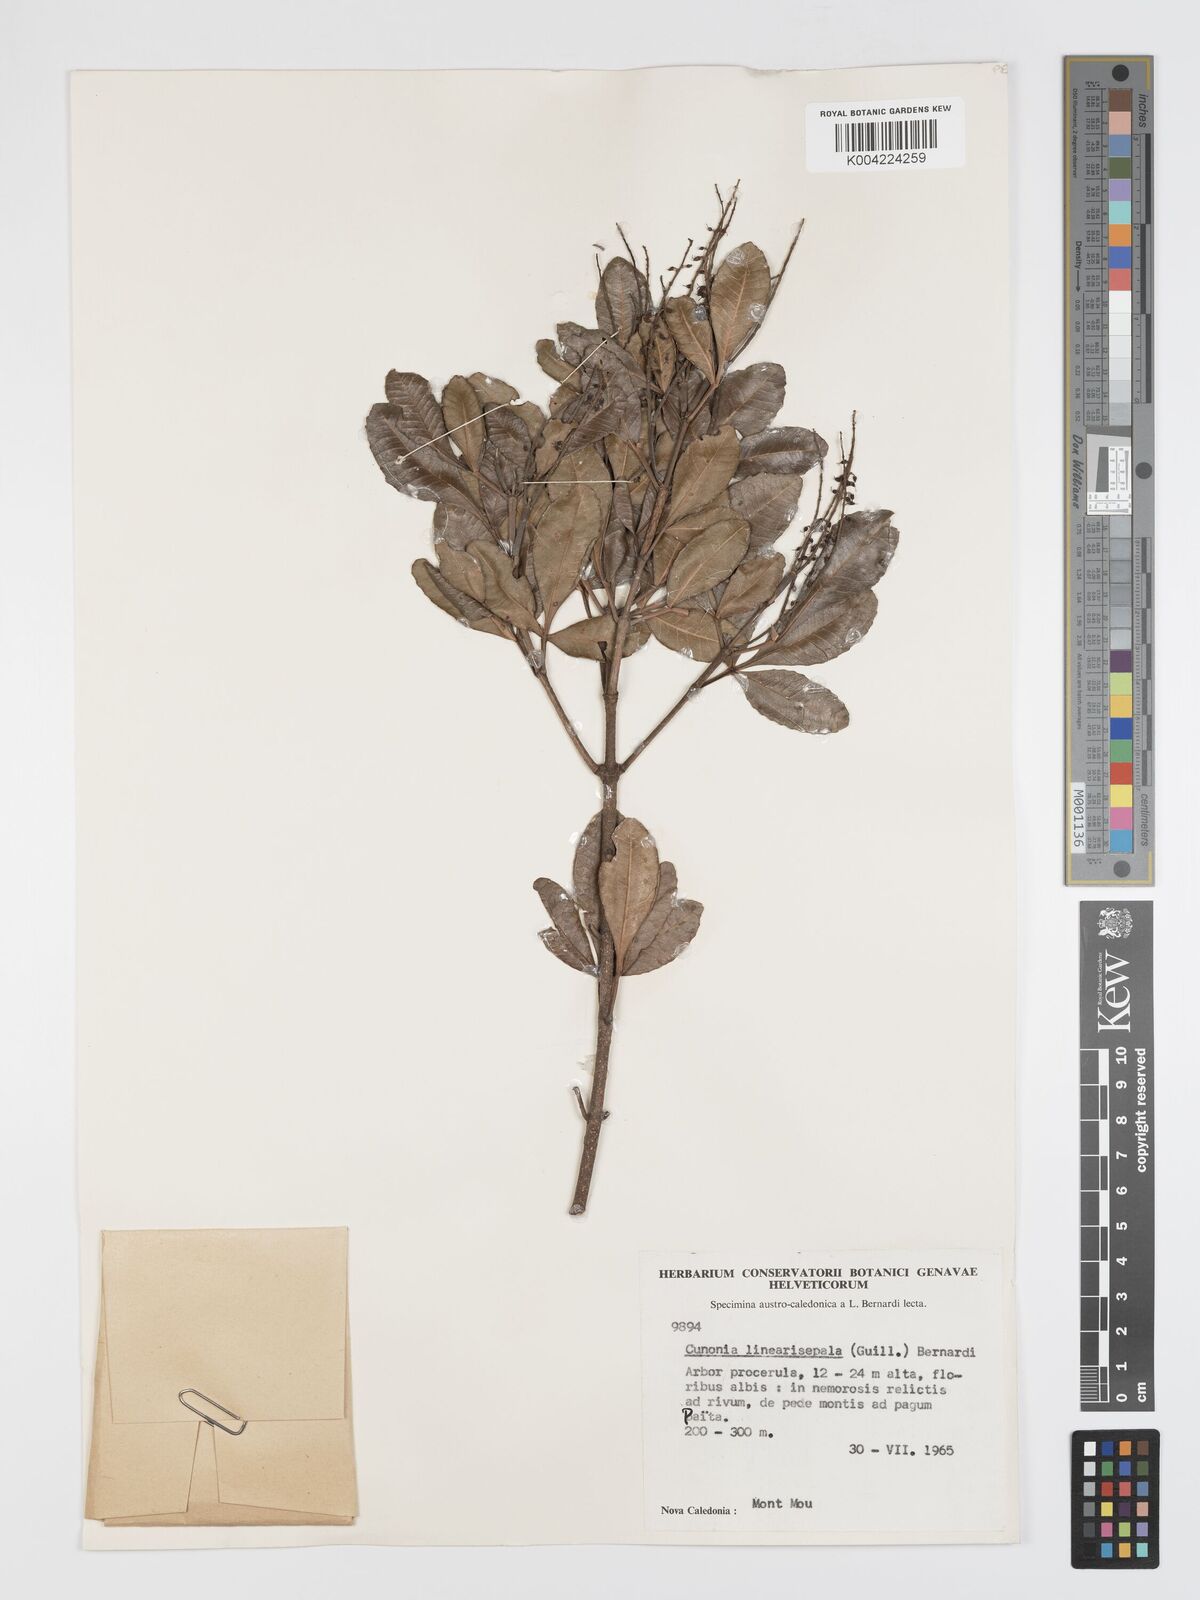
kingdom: Plantae
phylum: Tracheophyta
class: Magnoliopsida
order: Oxalidales
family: Cunoniaceae
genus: Cunonia
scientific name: Cunonia linearisepala
